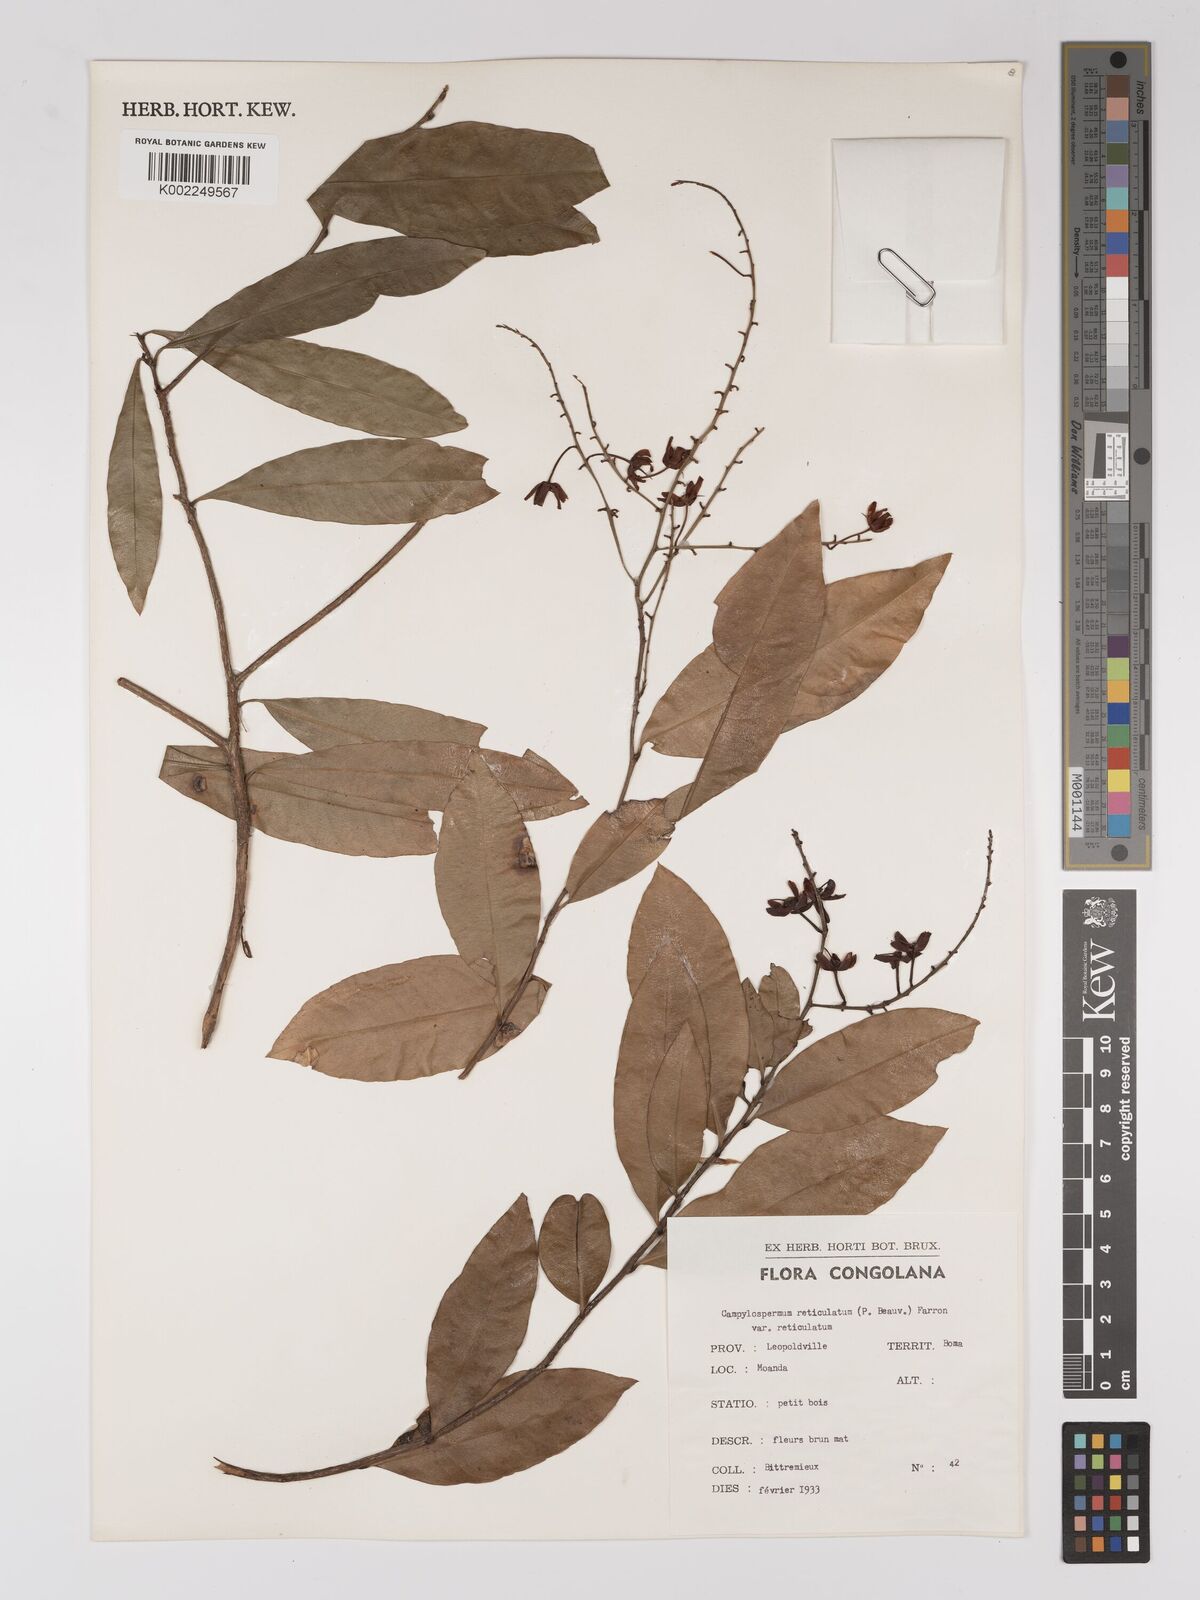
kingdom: Plantae
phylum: Tracheophyta
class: Magnoliopsida
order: Malpighiales
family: Ochnaceae
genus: Campylospermum
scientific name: Campylospermum reticulatum
